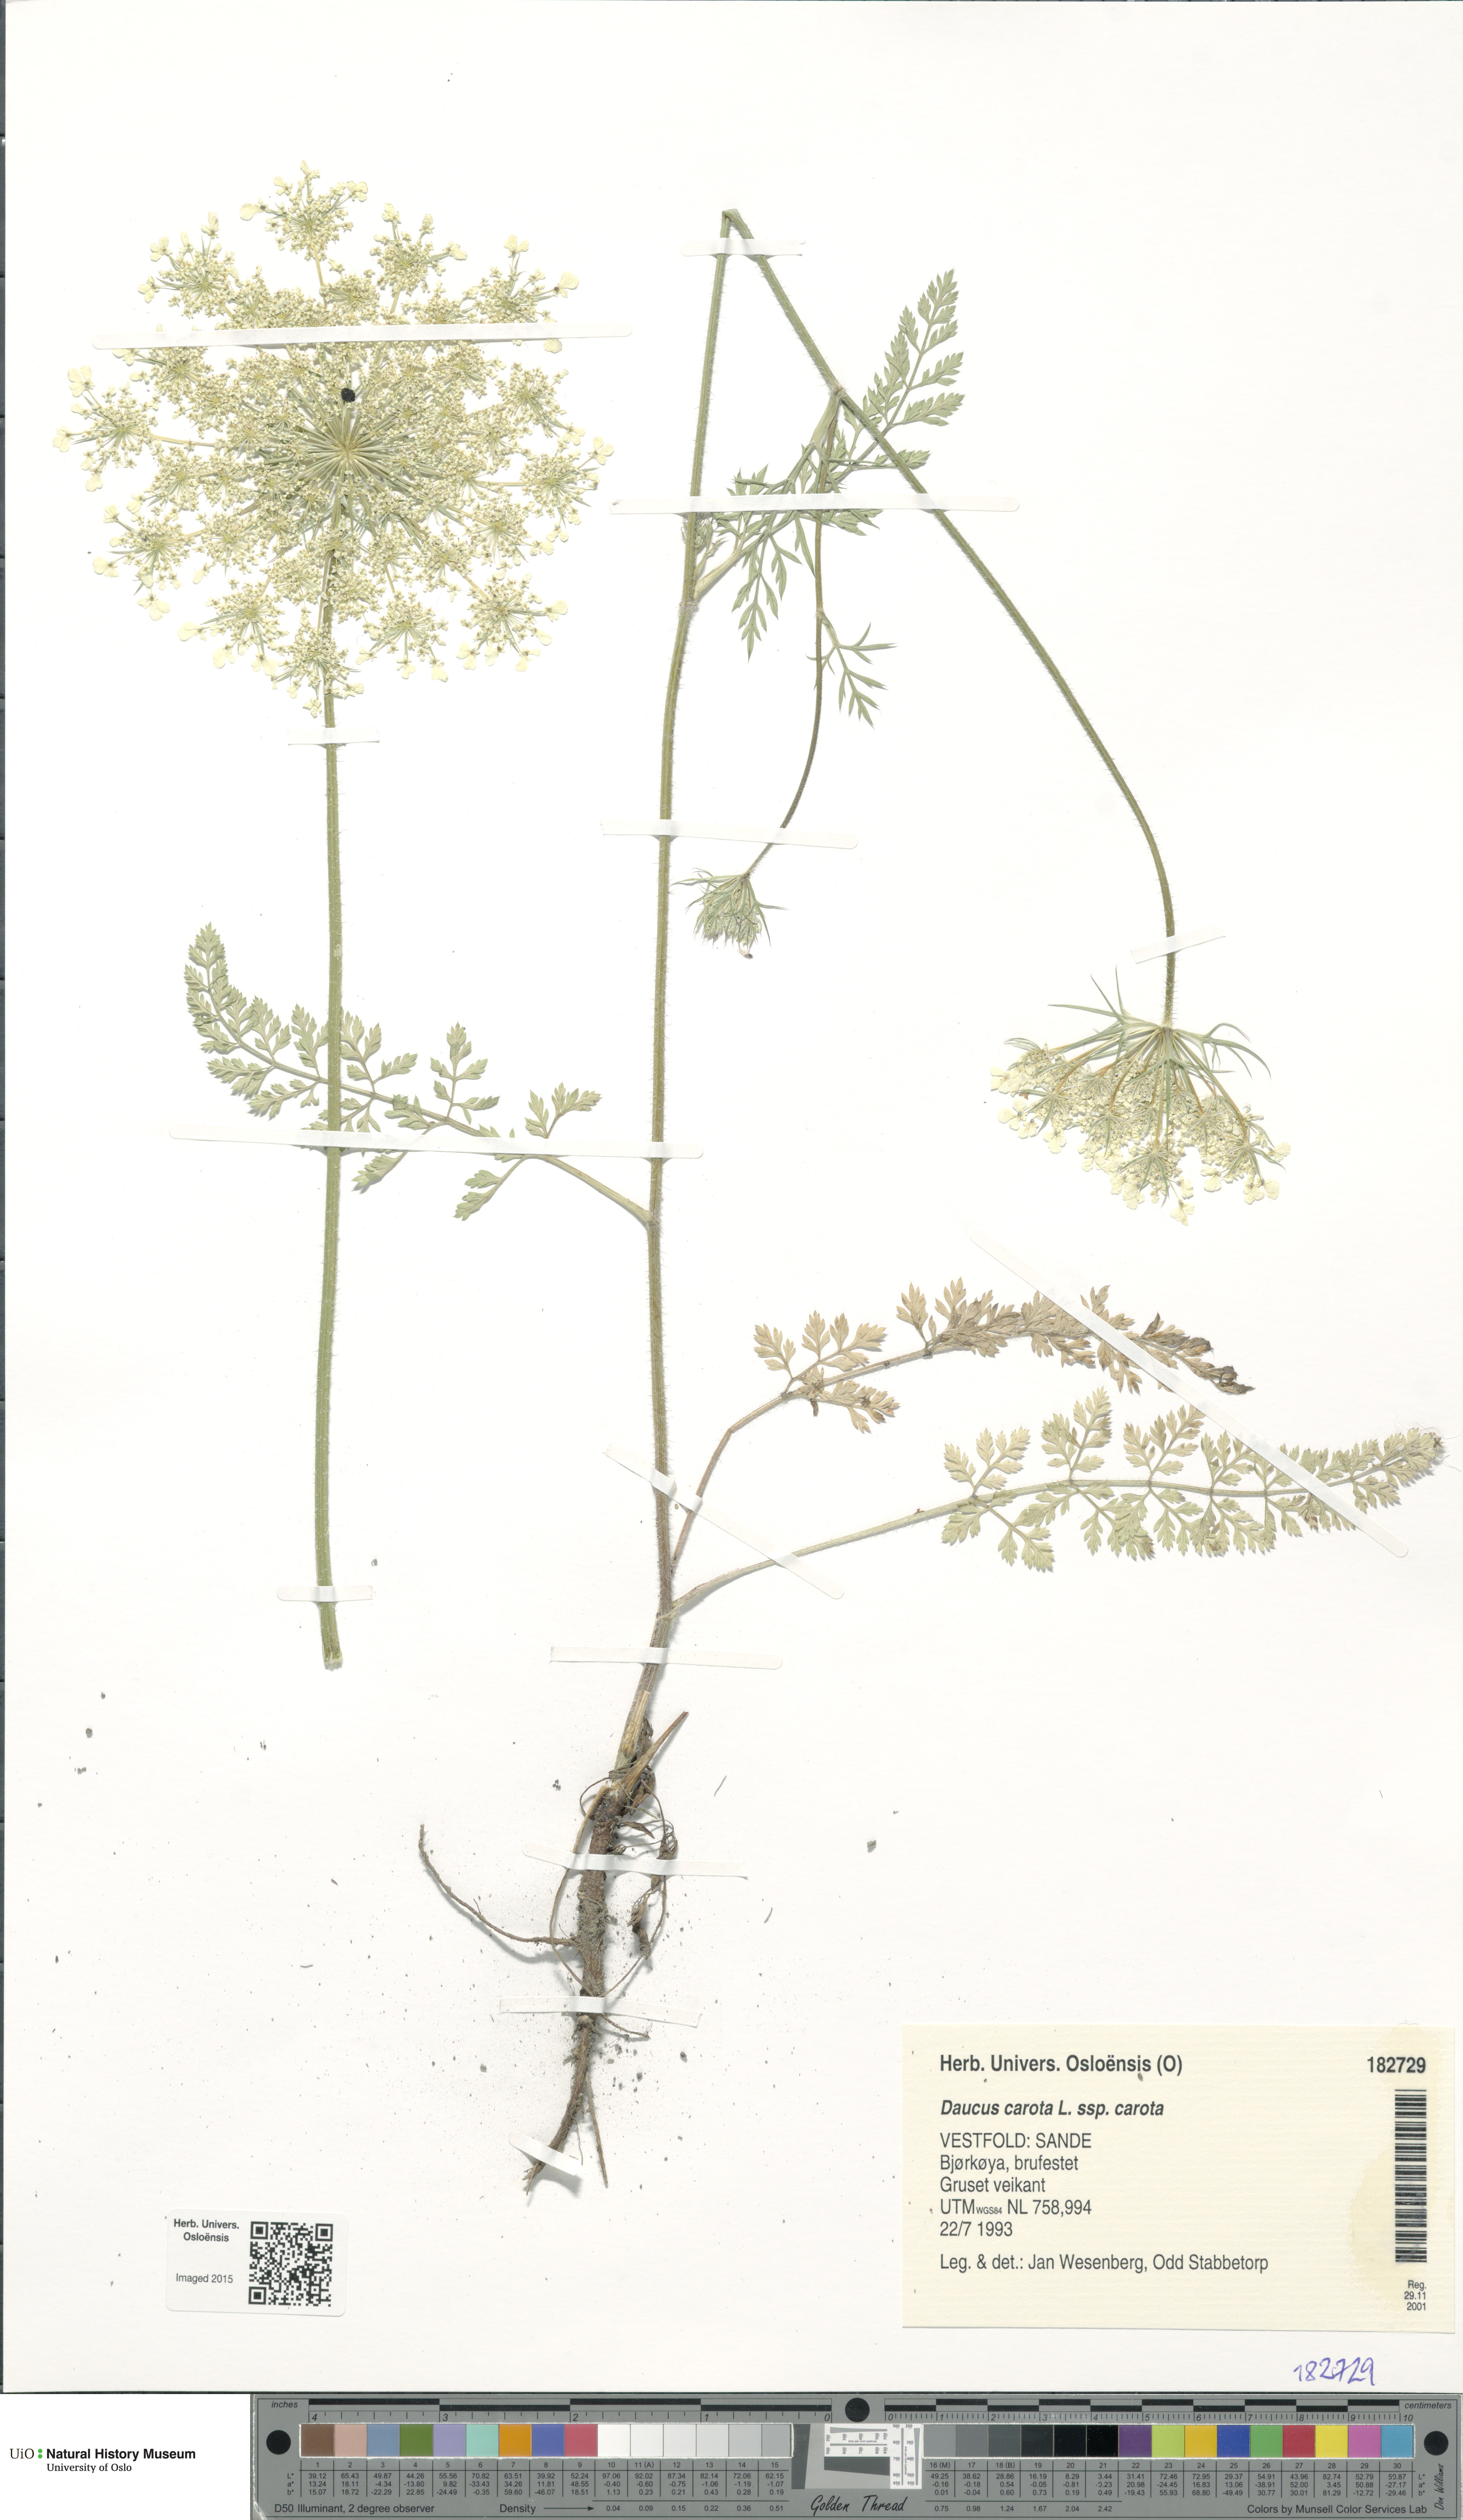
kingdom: Plantae
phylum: Tracheophyta
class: Magnoliopsida
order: Apiales
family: Apiaceae
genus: Daucus
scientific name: Daucus carota
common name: Wild carrot
